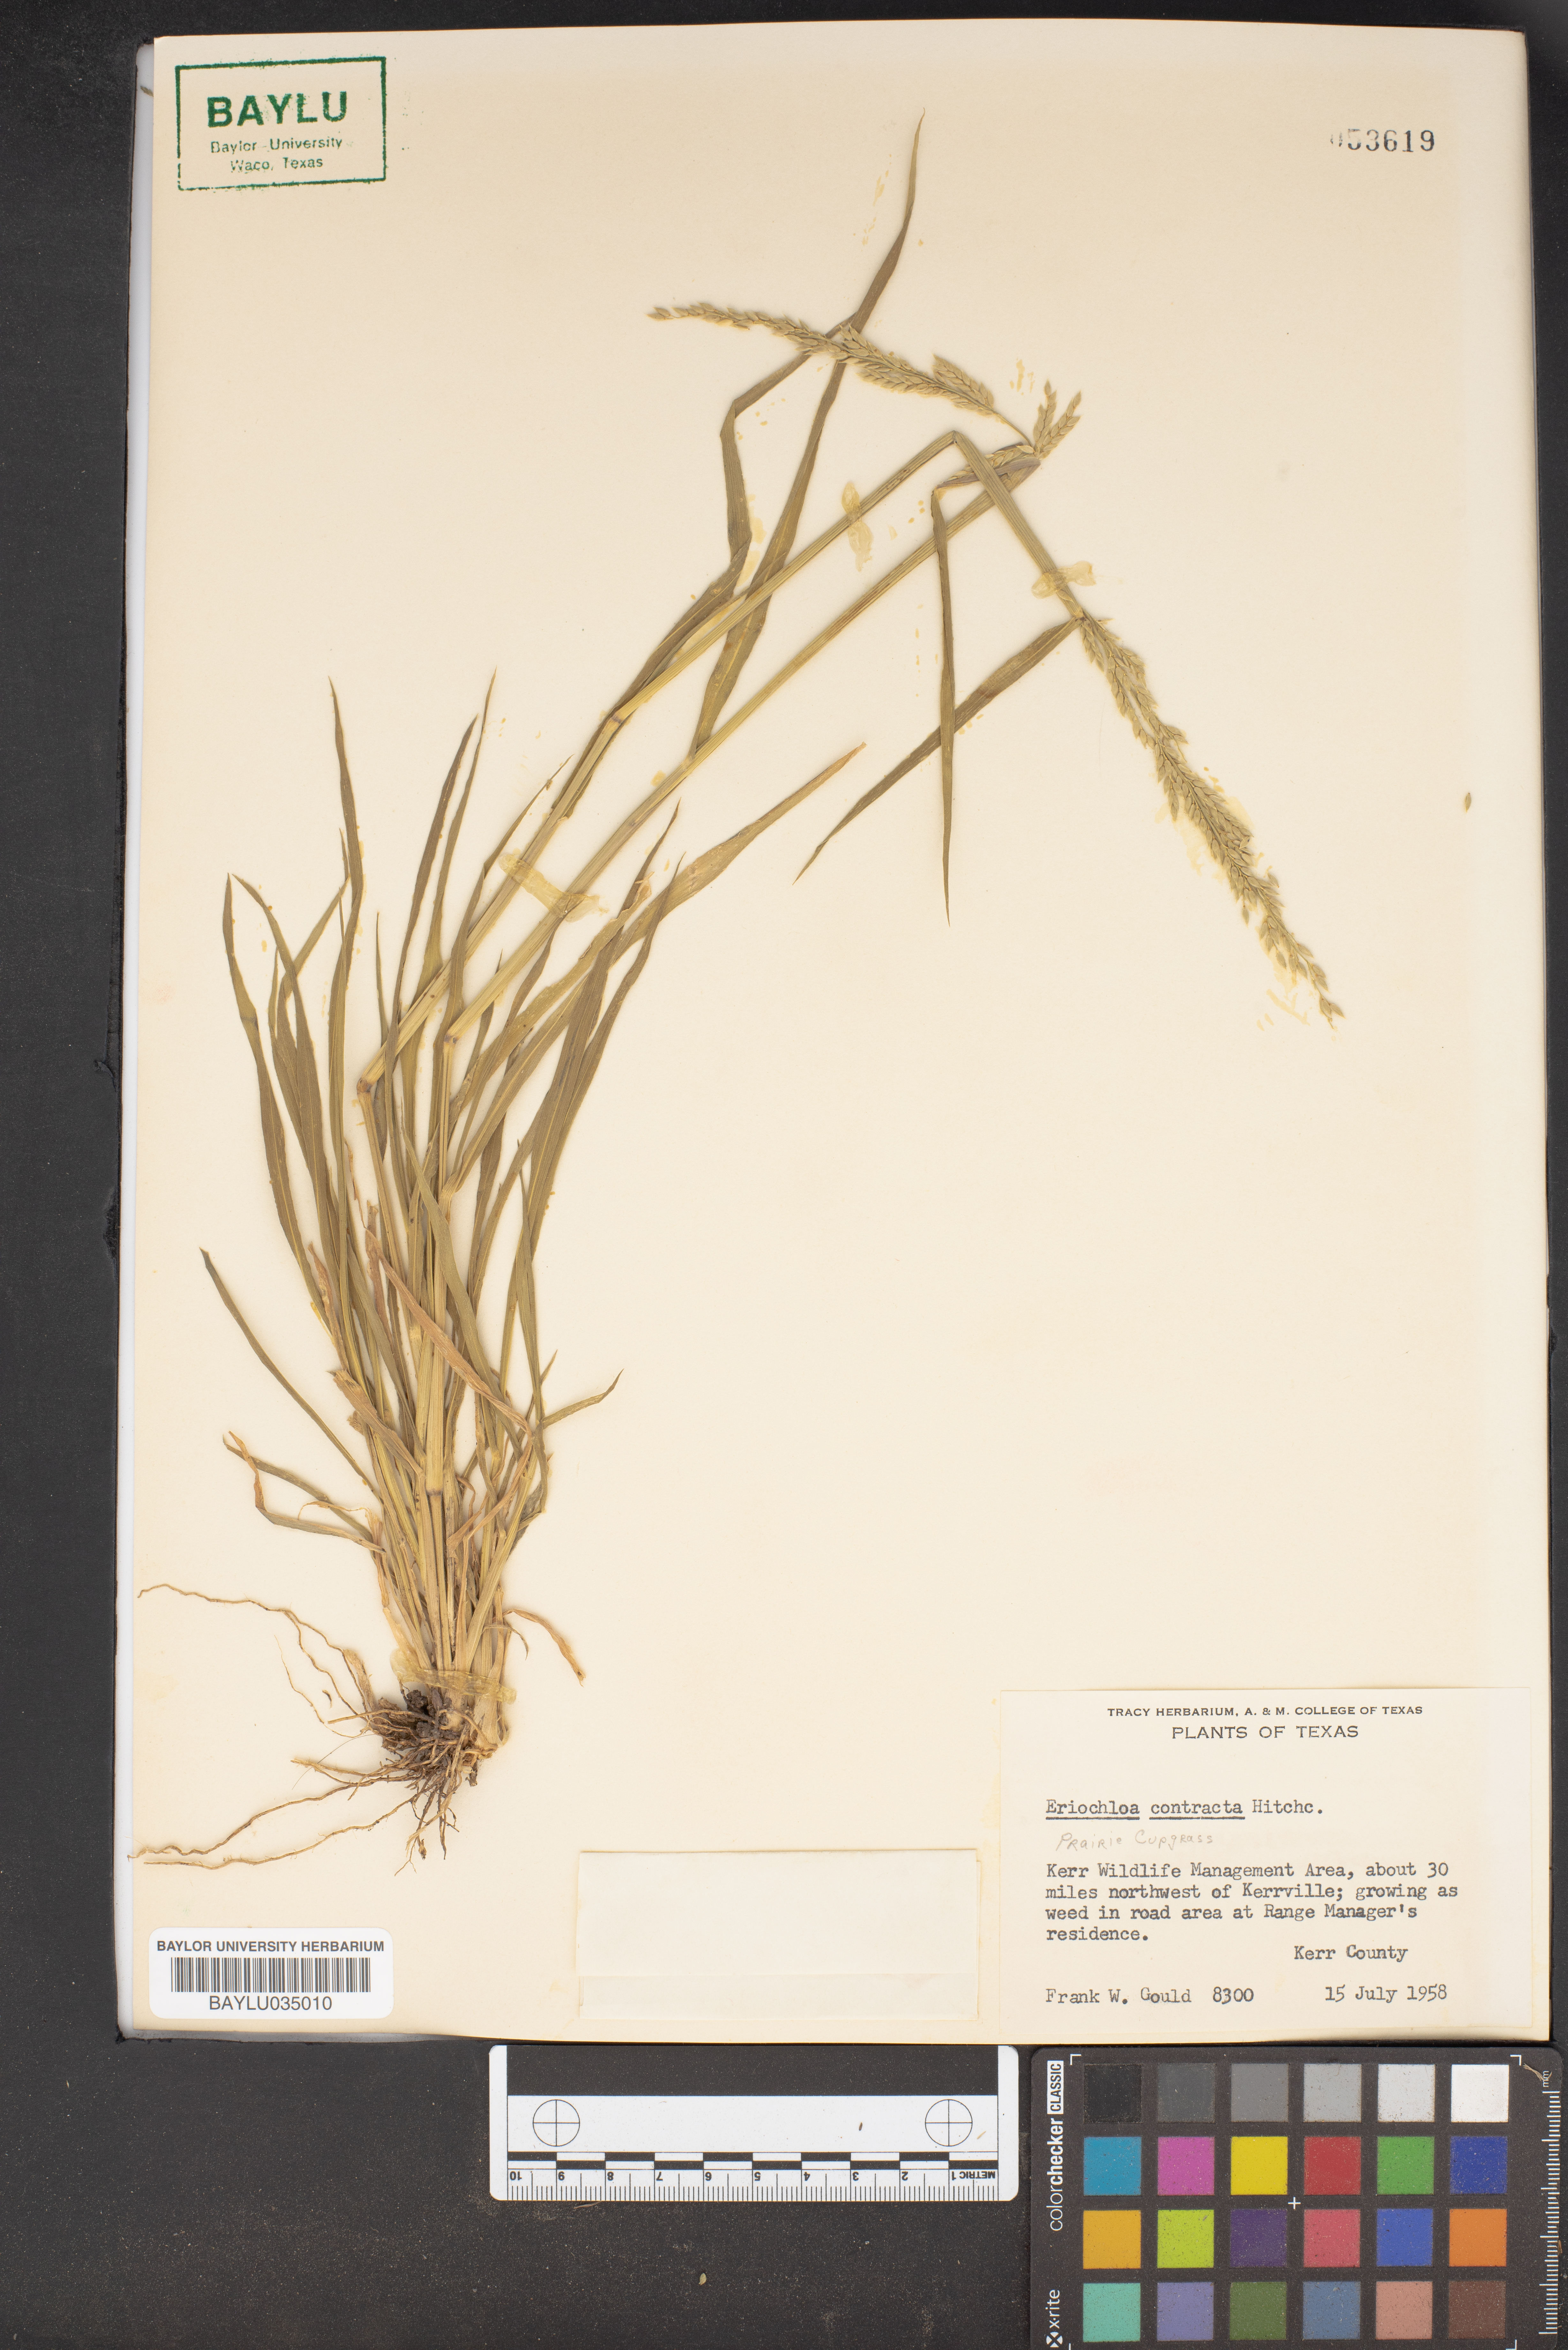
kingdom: Plantae
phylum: Tracheophyta
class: Liliopsida
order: Poales
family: Poaceae
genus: Eriochloa
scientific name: Eriochloa contracta
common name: Prairie cup grass
